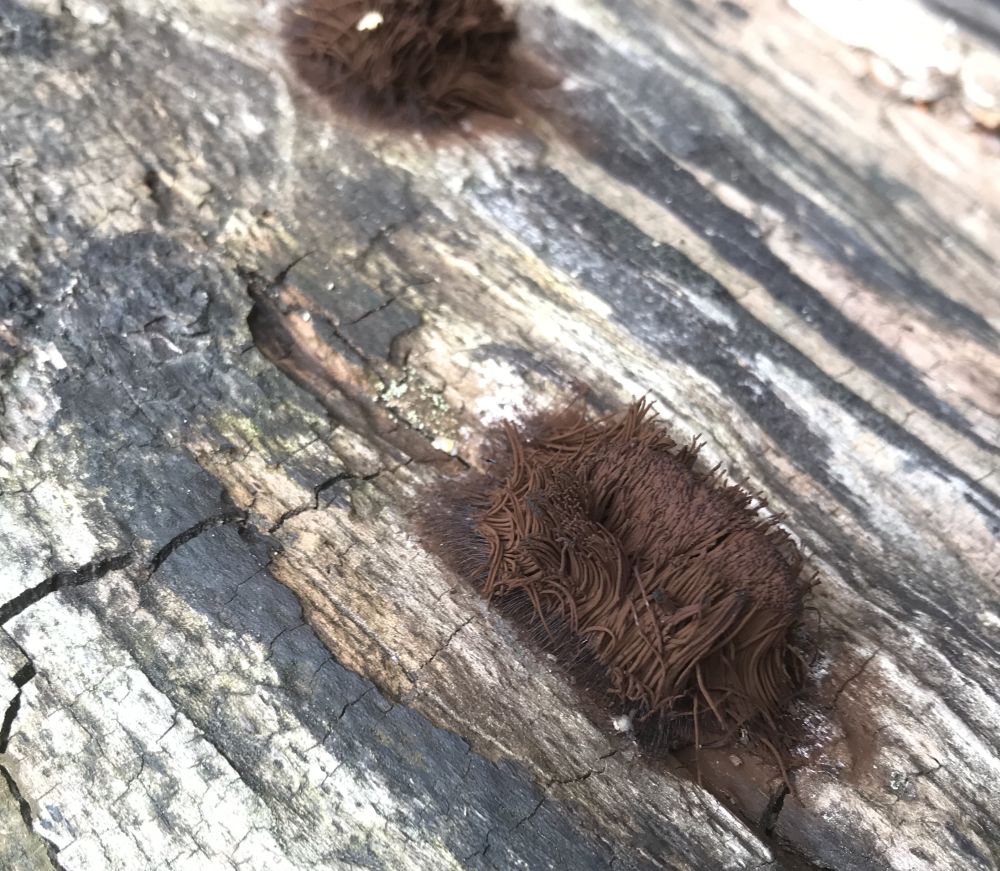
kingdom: Protozoa
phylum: Mycetozoa
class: Myxomycetes
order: Stemonitidales
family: Stemonitidaceae
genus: Stemonitis
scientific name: Stemonitis
